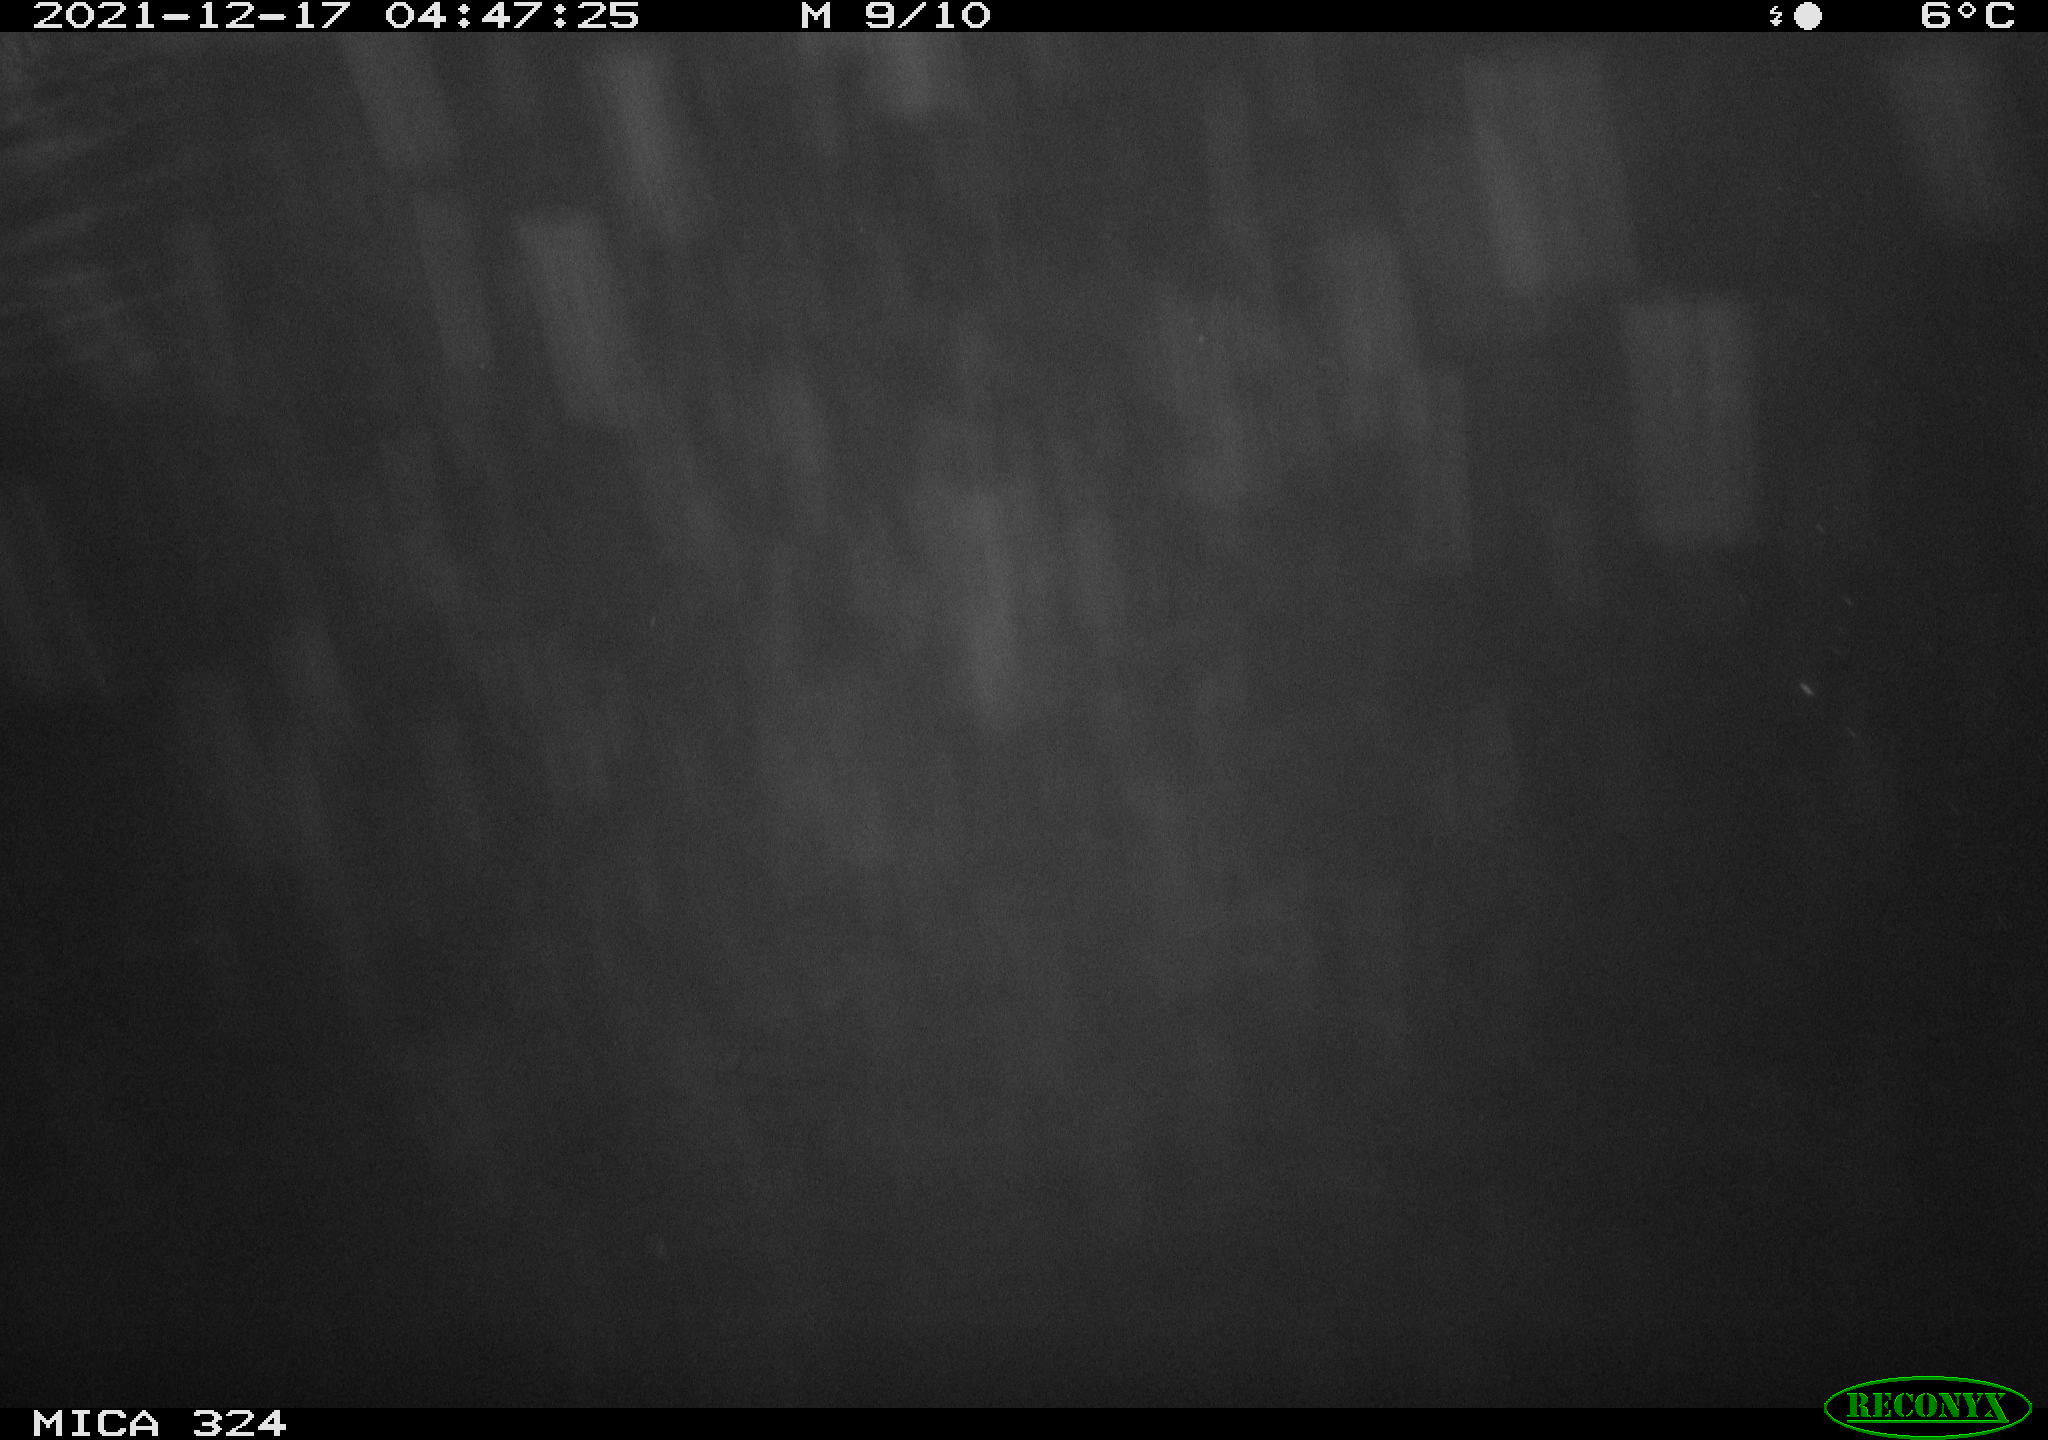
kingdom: Animalia
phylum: Chordata
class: Mammalia
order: Rodentia
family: Cricetidae
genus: Ondatra
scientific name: Ondatra zibethicus
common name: Muskrat
